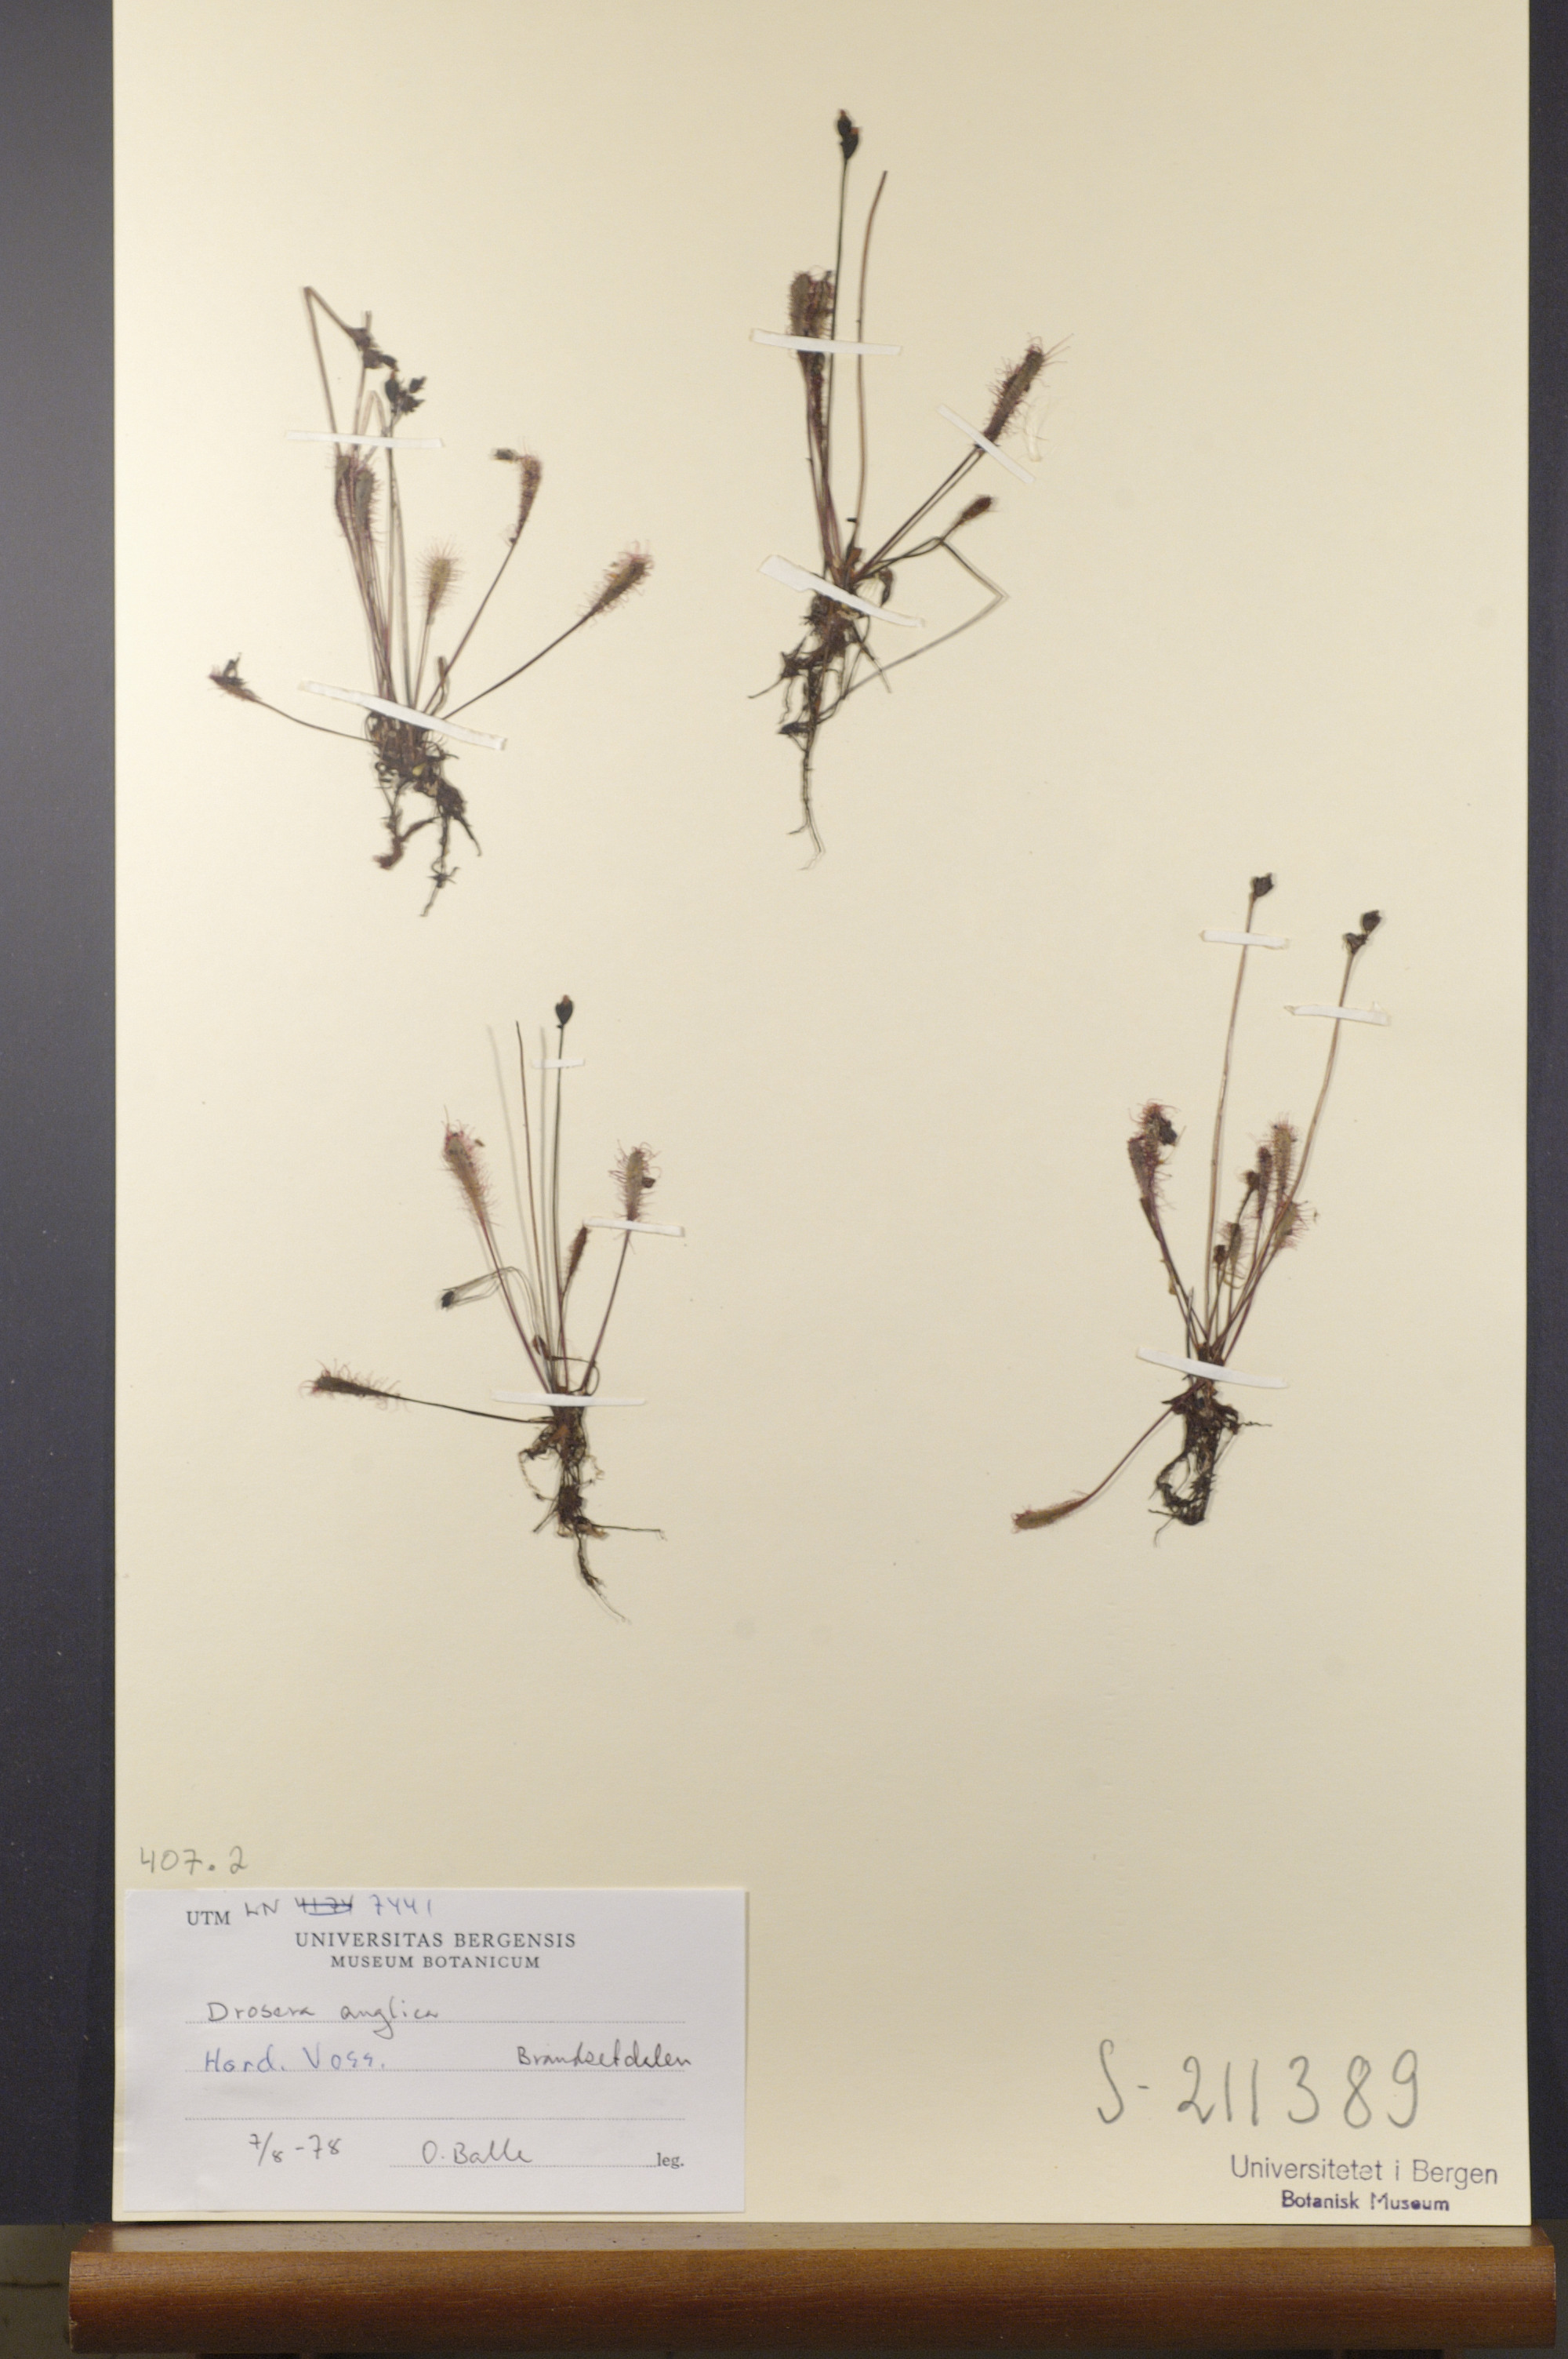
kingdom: Plantae
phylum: Tracheophyta
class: Magnoliopsida
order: Caryophyllales
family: Droseraceae
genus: Drosera
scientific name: Drosera anglica
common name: Great sundew
